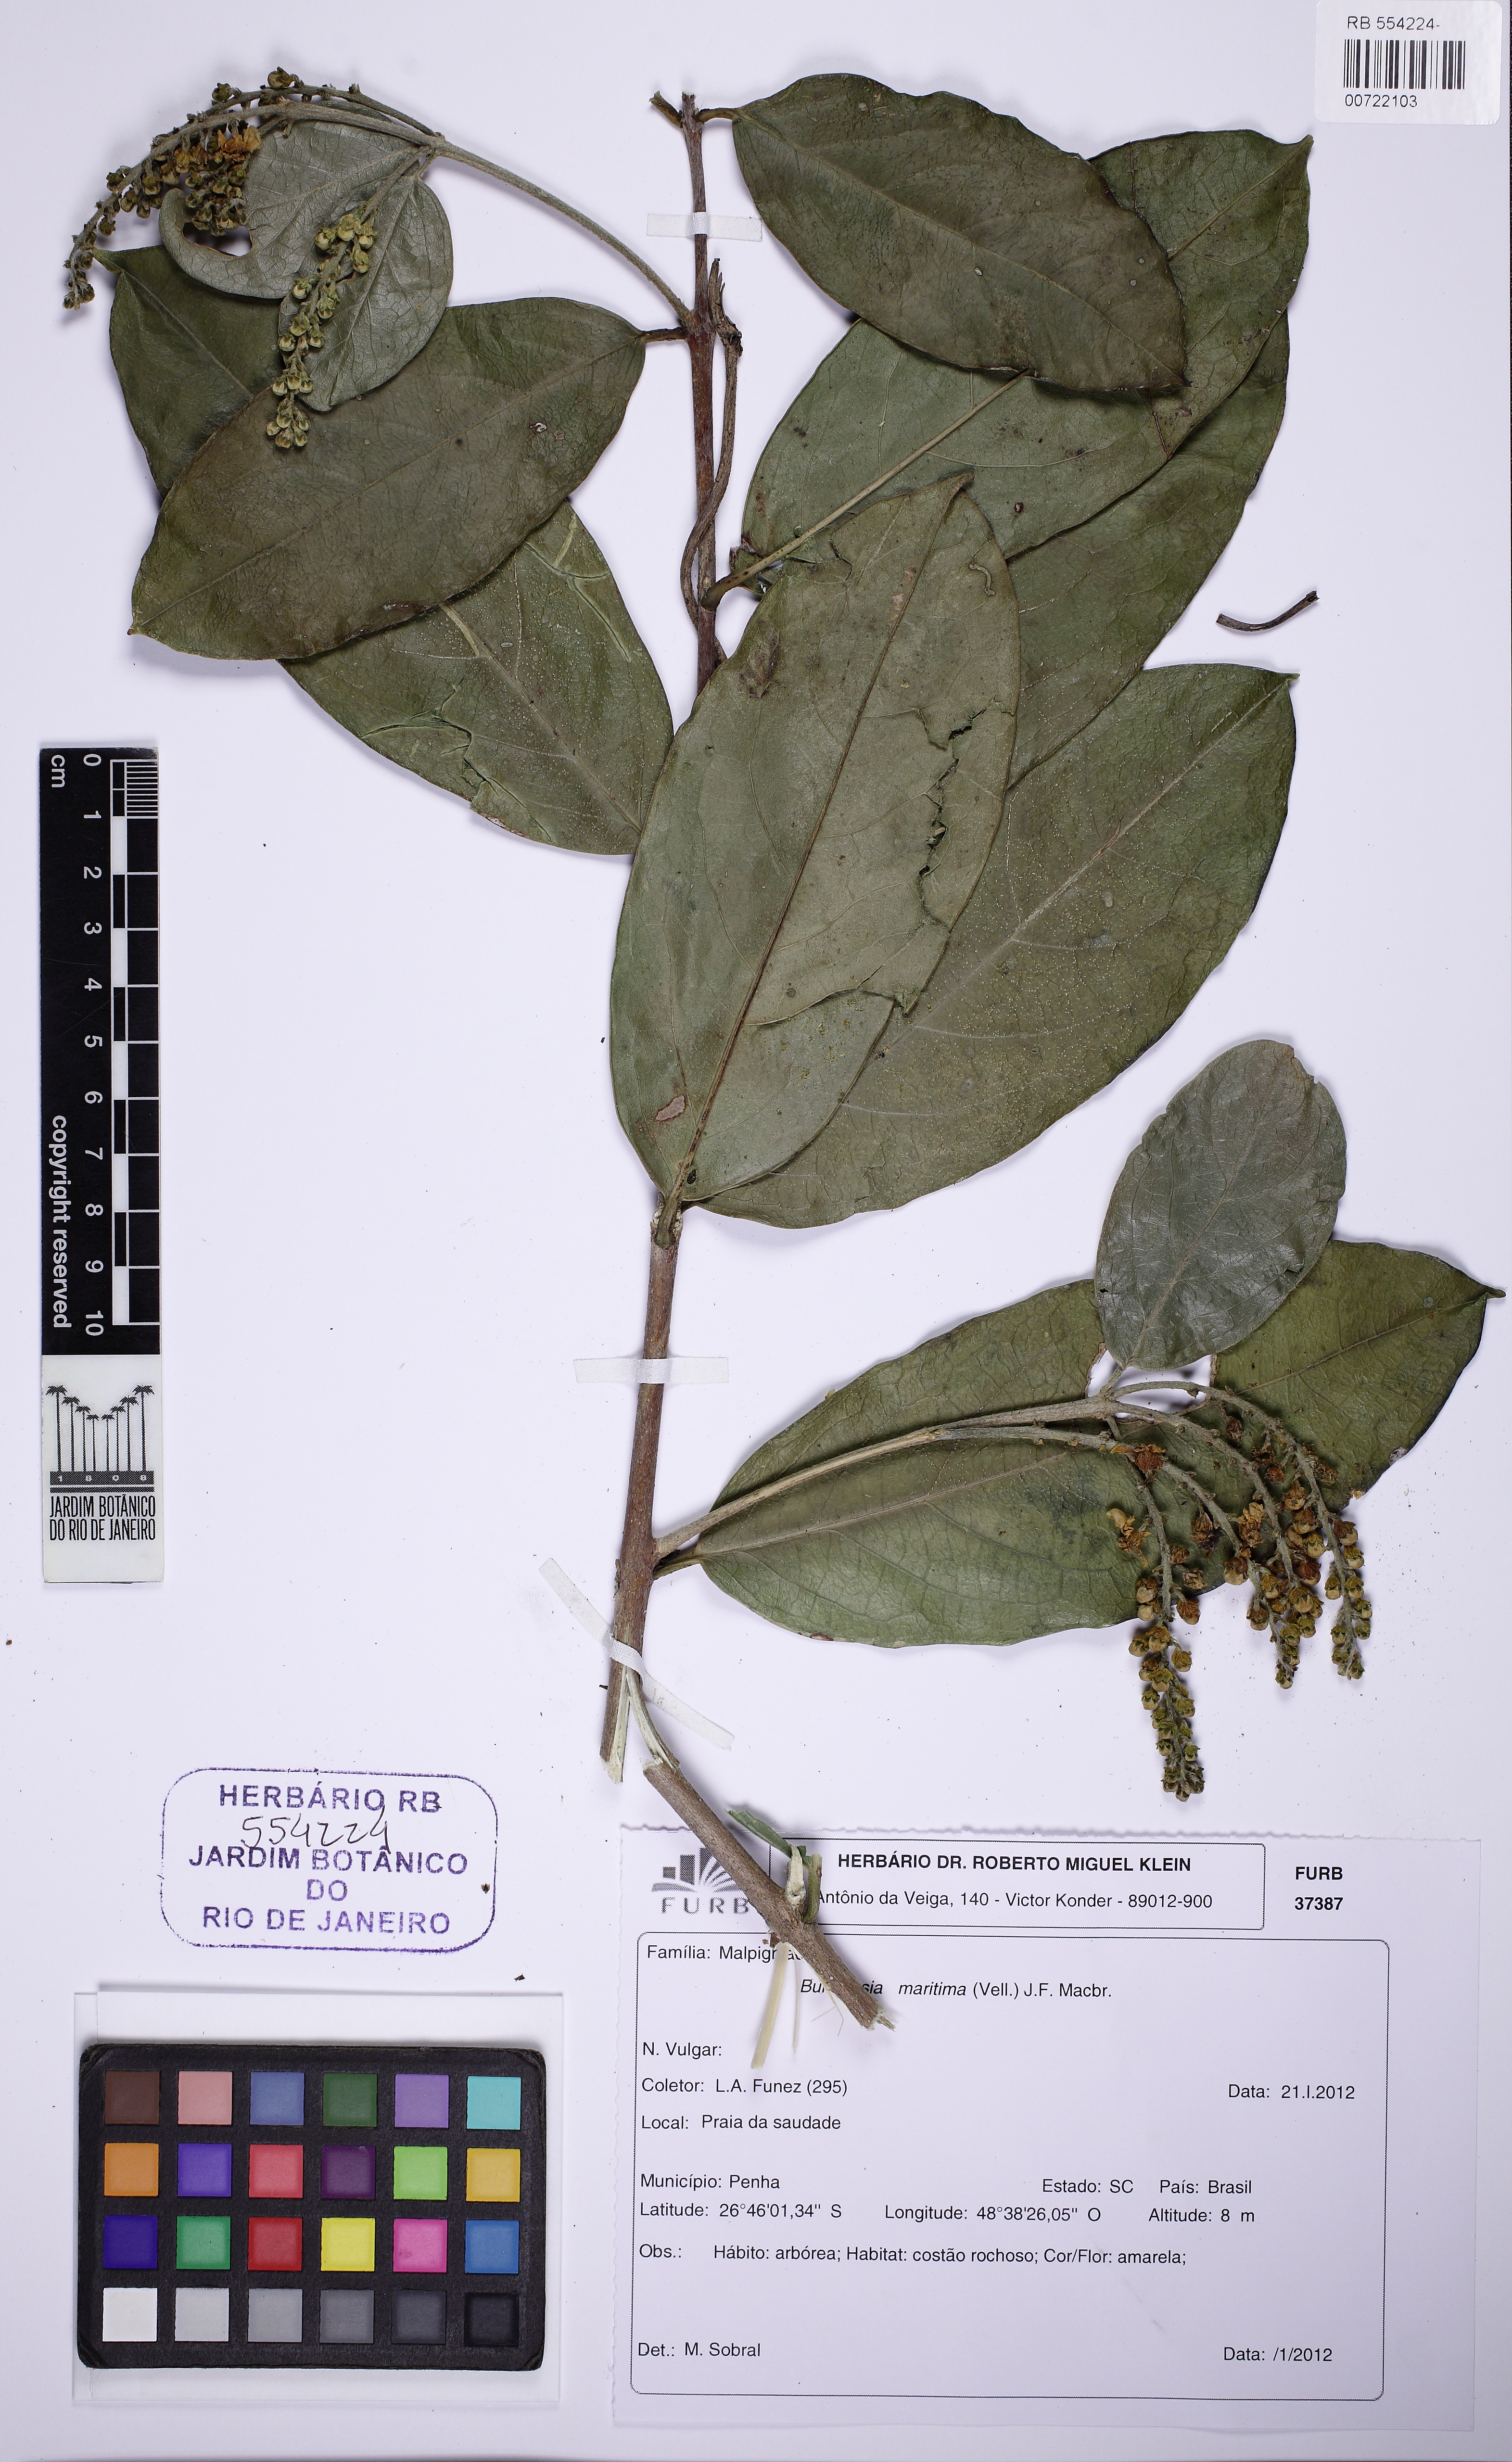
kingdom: Plantae
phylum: Tracheophyta
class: Magnoliopsida
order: Malpighiales
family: Malpighiaceae
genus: Bunchosia
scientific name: Bunchosia maritima
